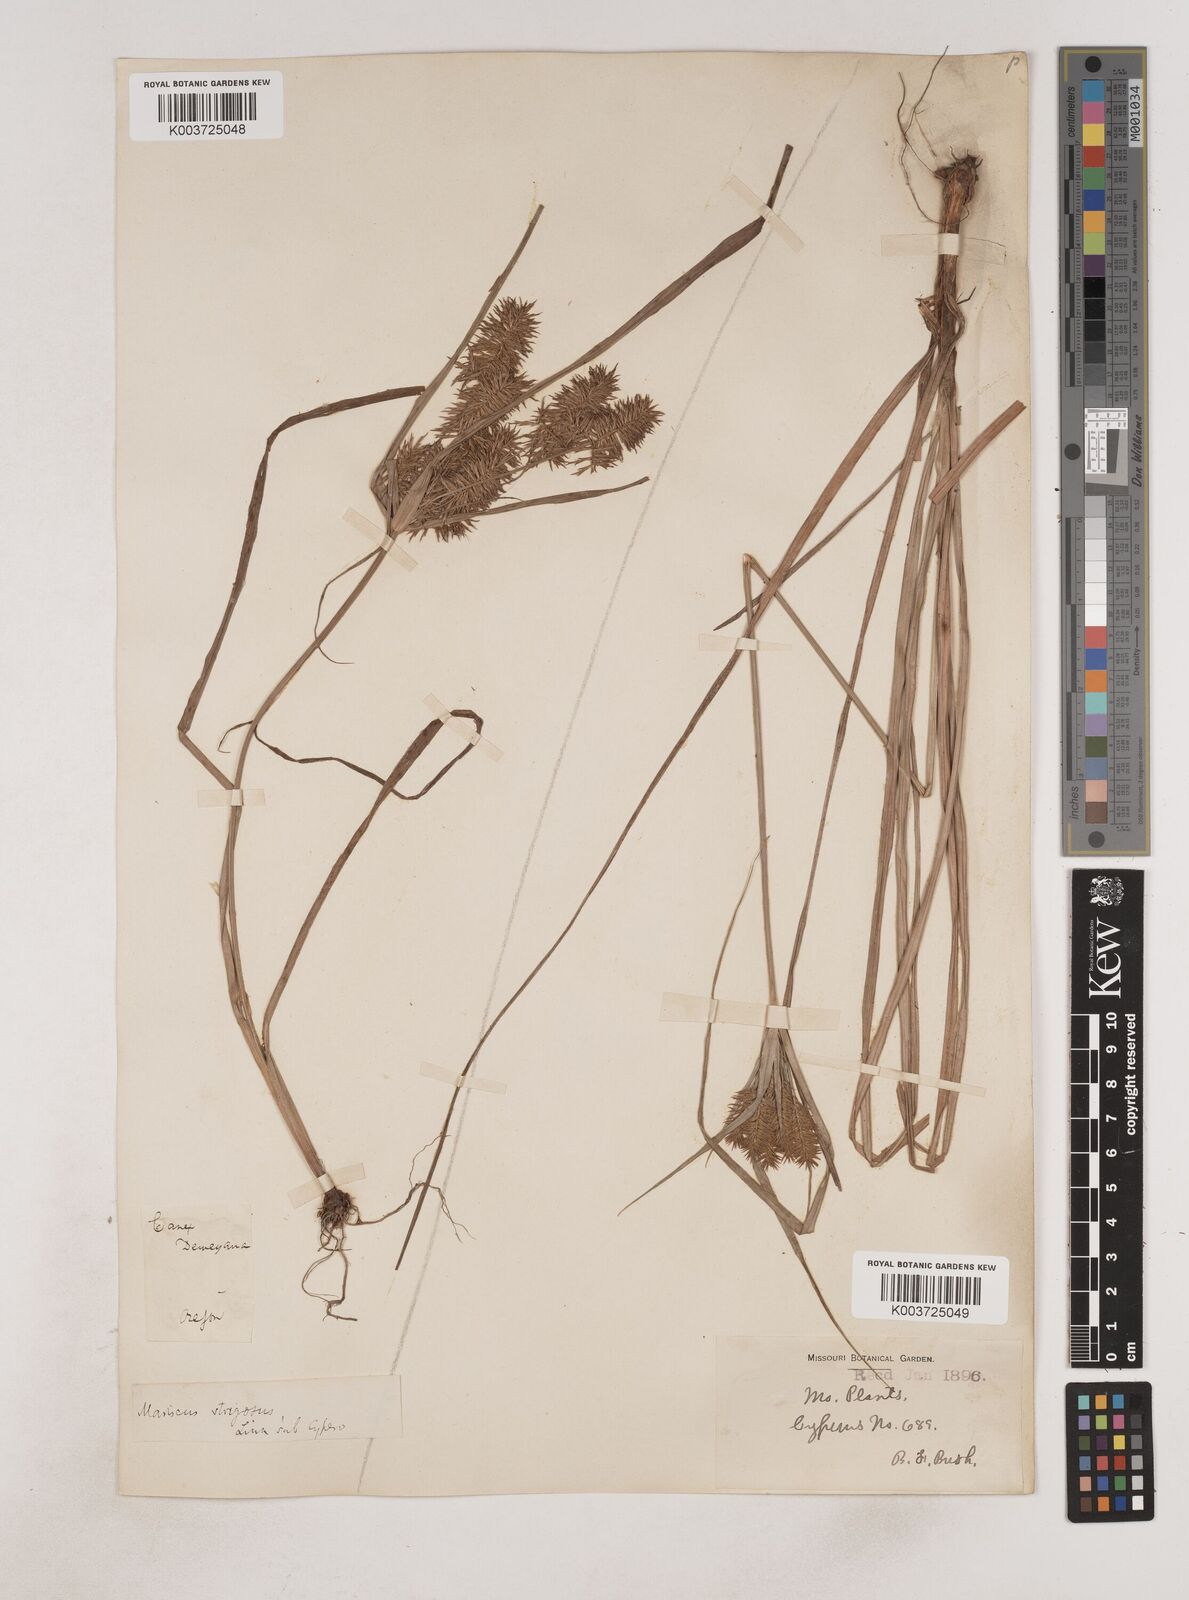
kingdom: Plantae
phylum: Tracheophyta
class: Liliopsida
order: Poales
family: Cyperaceae
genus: Cyperus
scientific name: Cyperus strigosus
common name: False nutsedge
